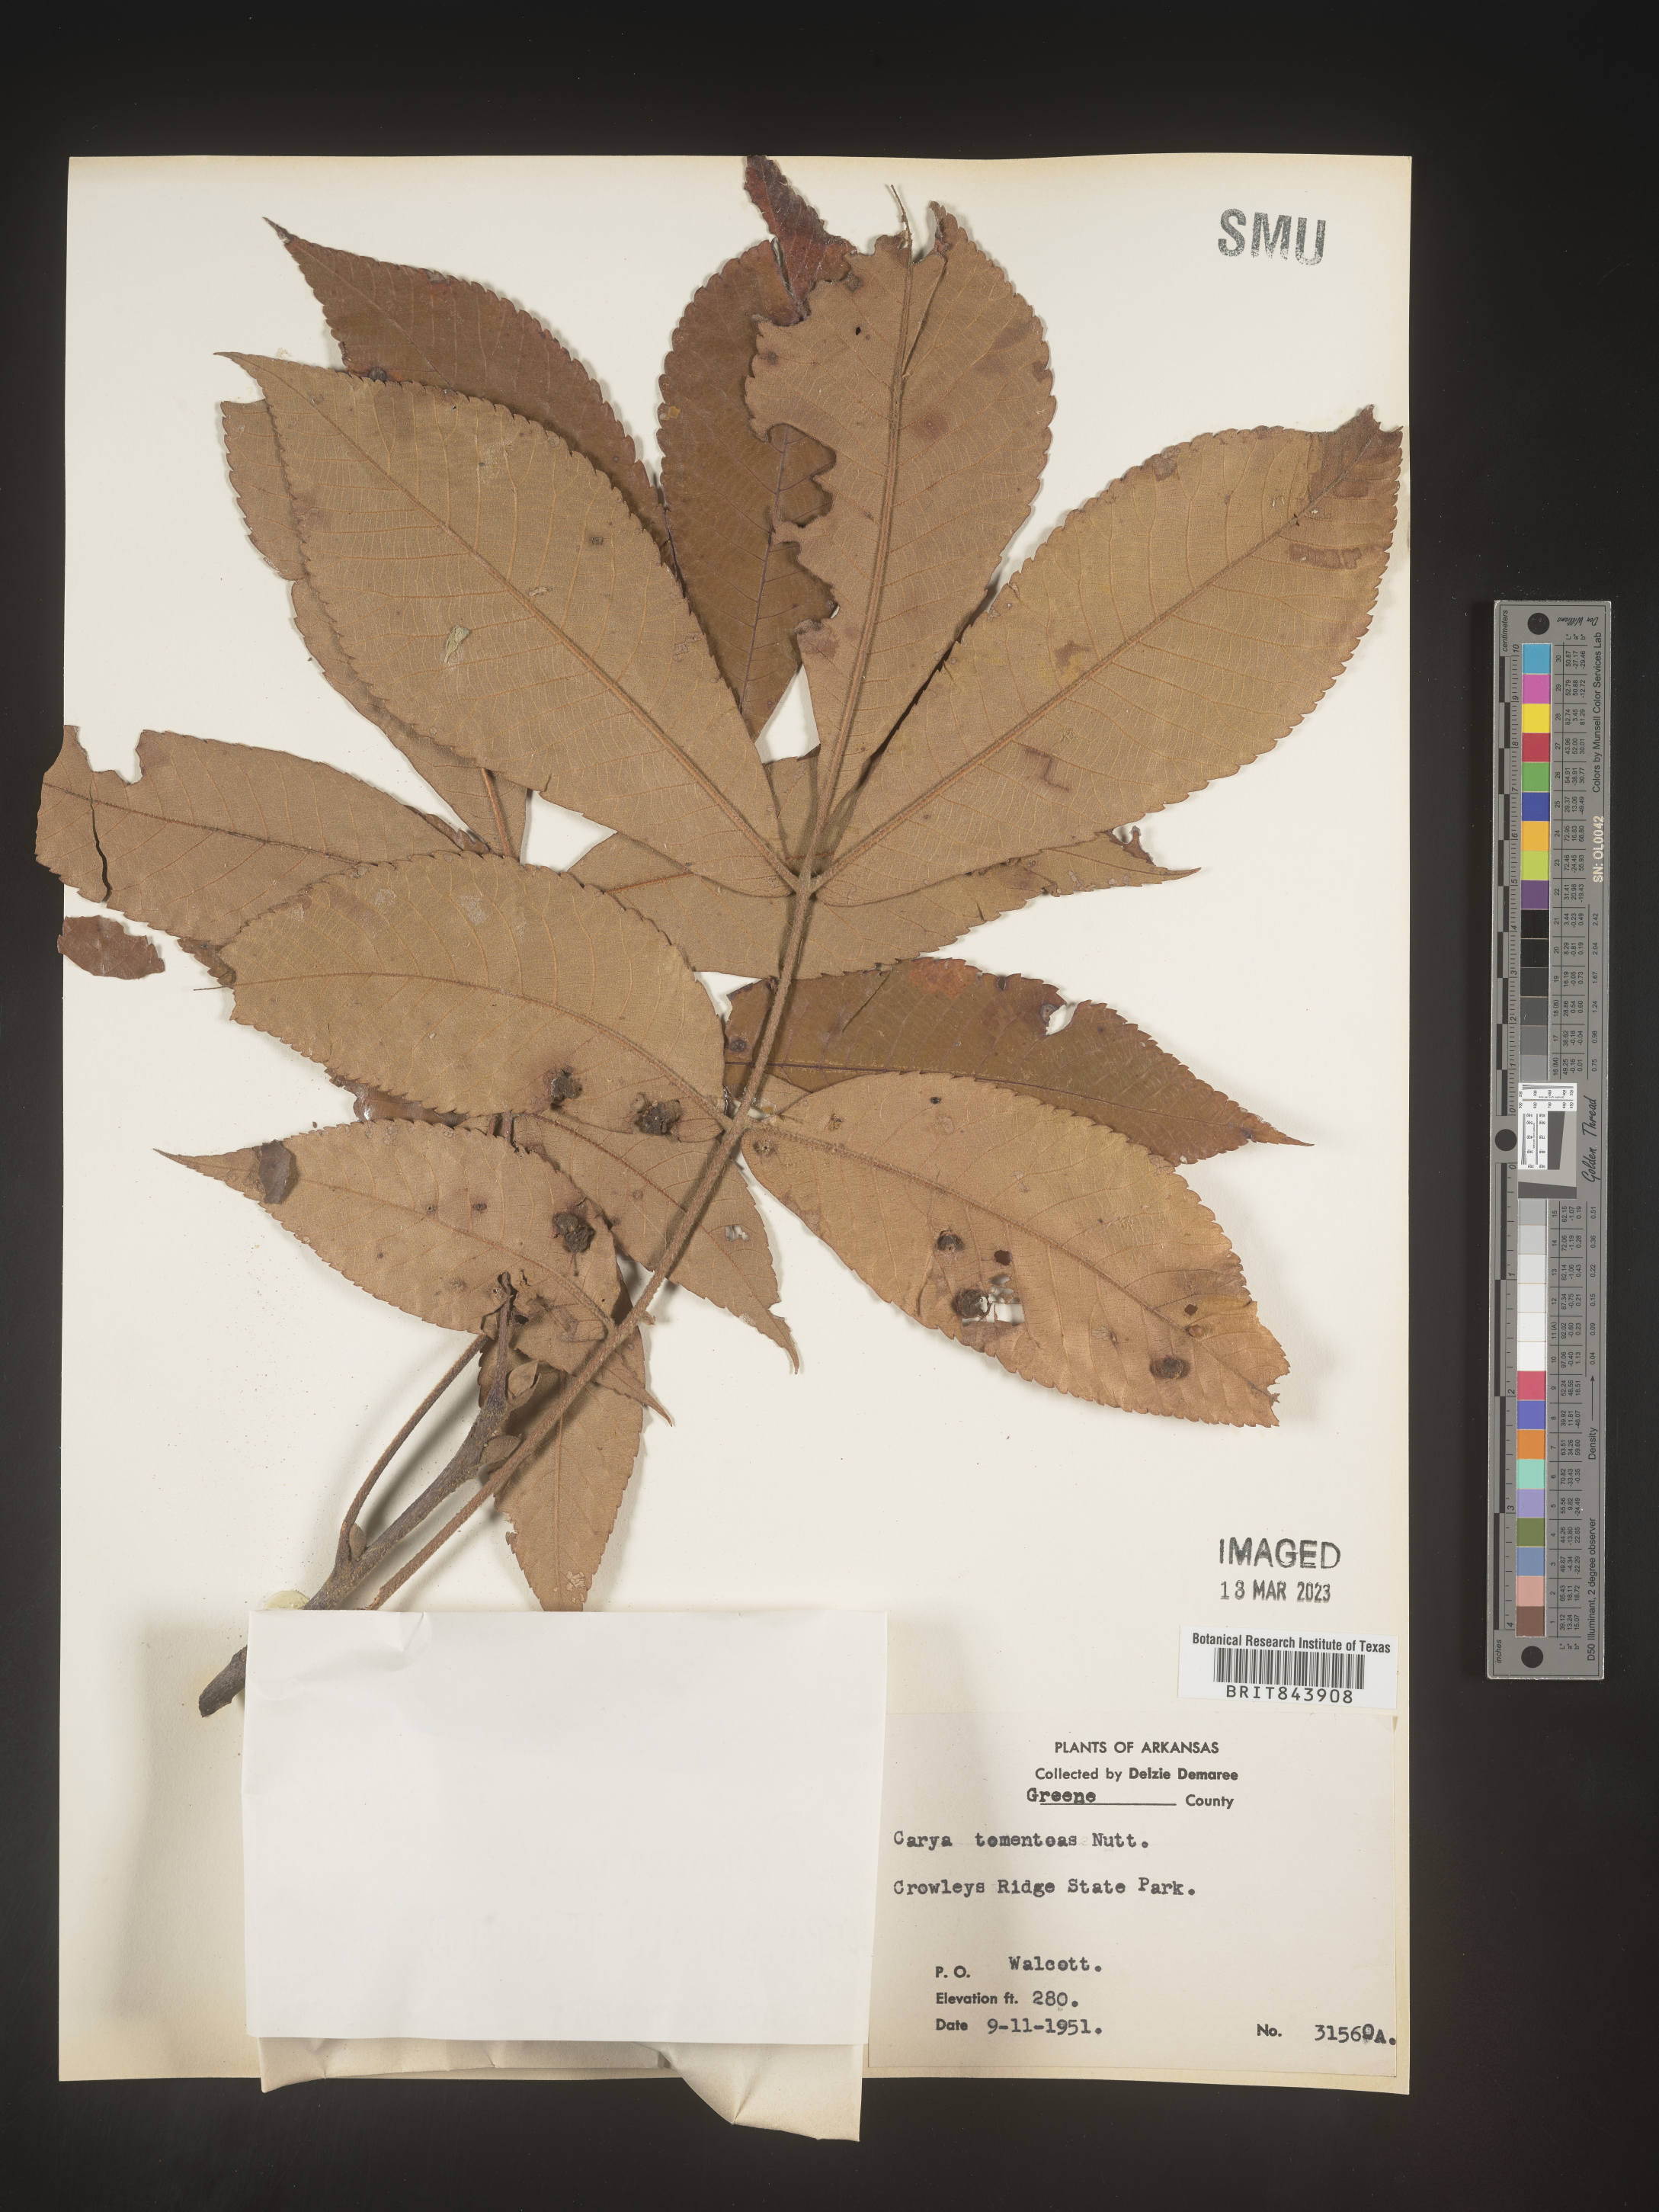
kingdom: Plantae
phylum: Tracheophyta
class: Magnoliopsida
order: Fagales
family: Juglandaceae
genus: Carya
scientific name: Carya alba
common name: Mockernut hickory
